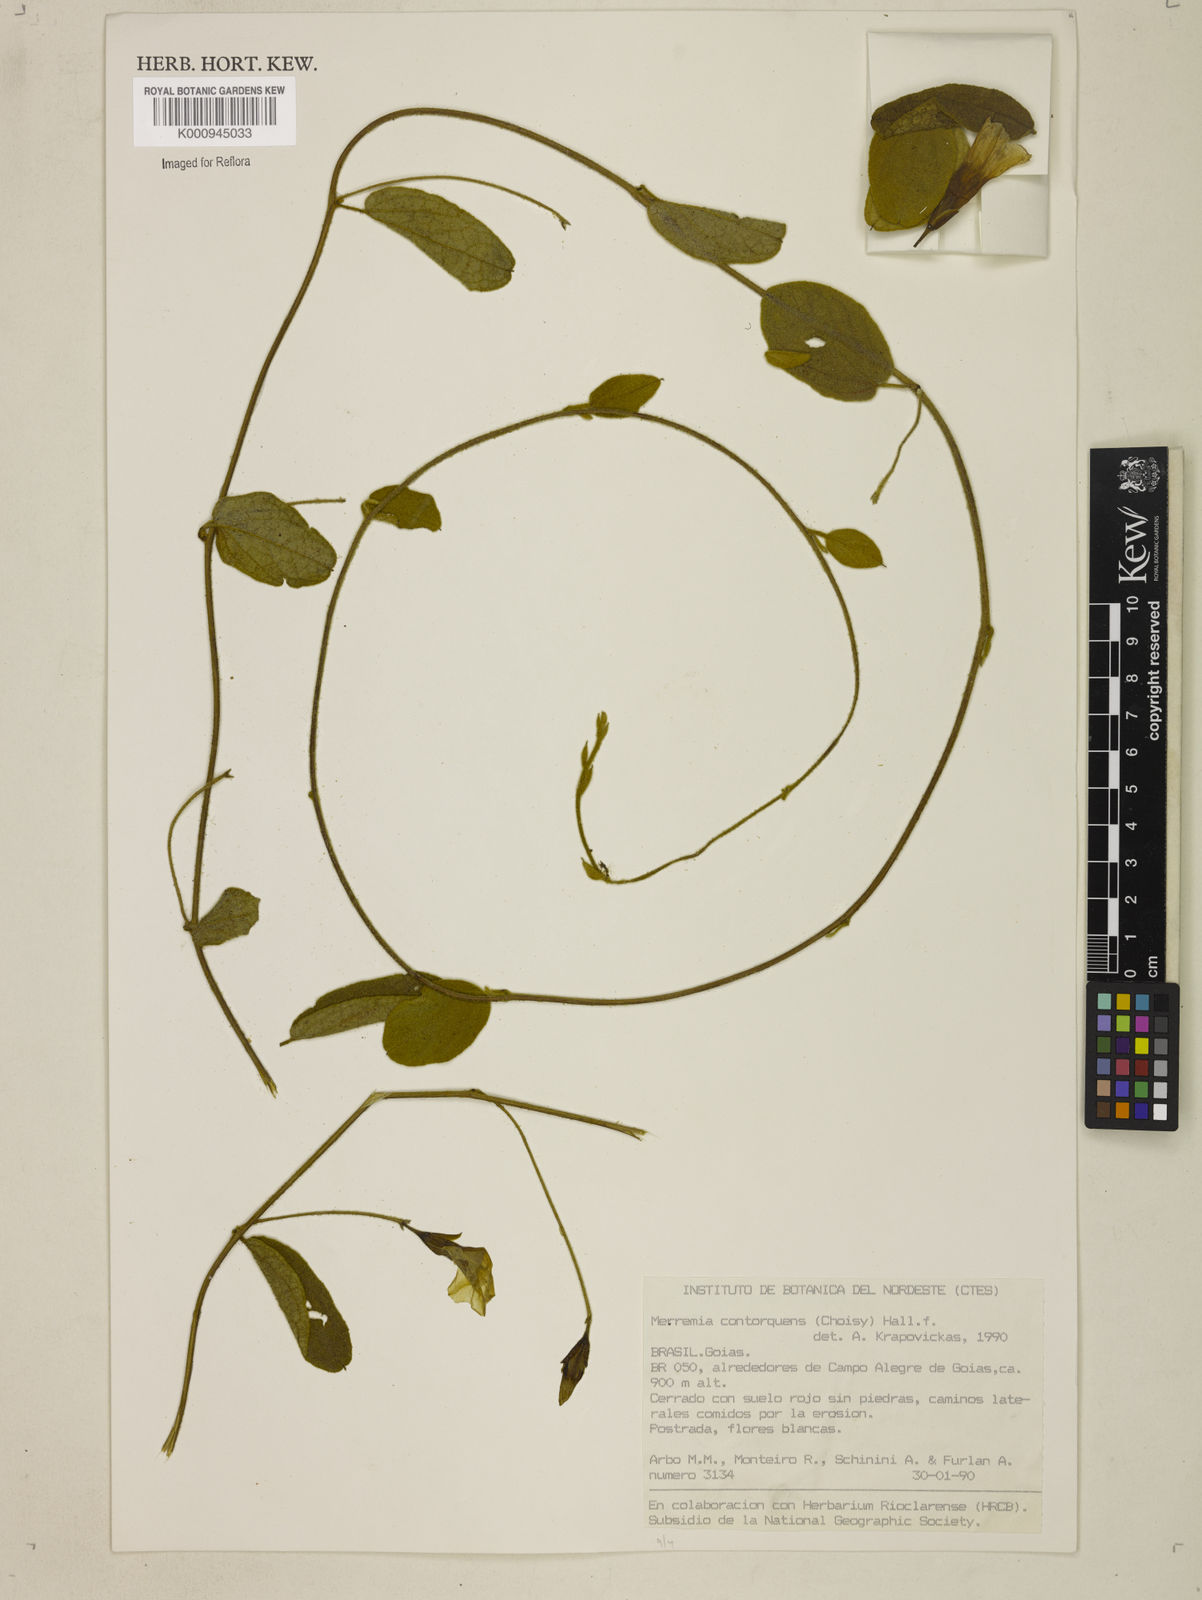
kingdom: Plantae
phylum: Tracheophyta
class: Magnoliopsida
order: Solanales
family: Convolvulaceae
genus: Distimake
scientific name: Distimake contorquens
